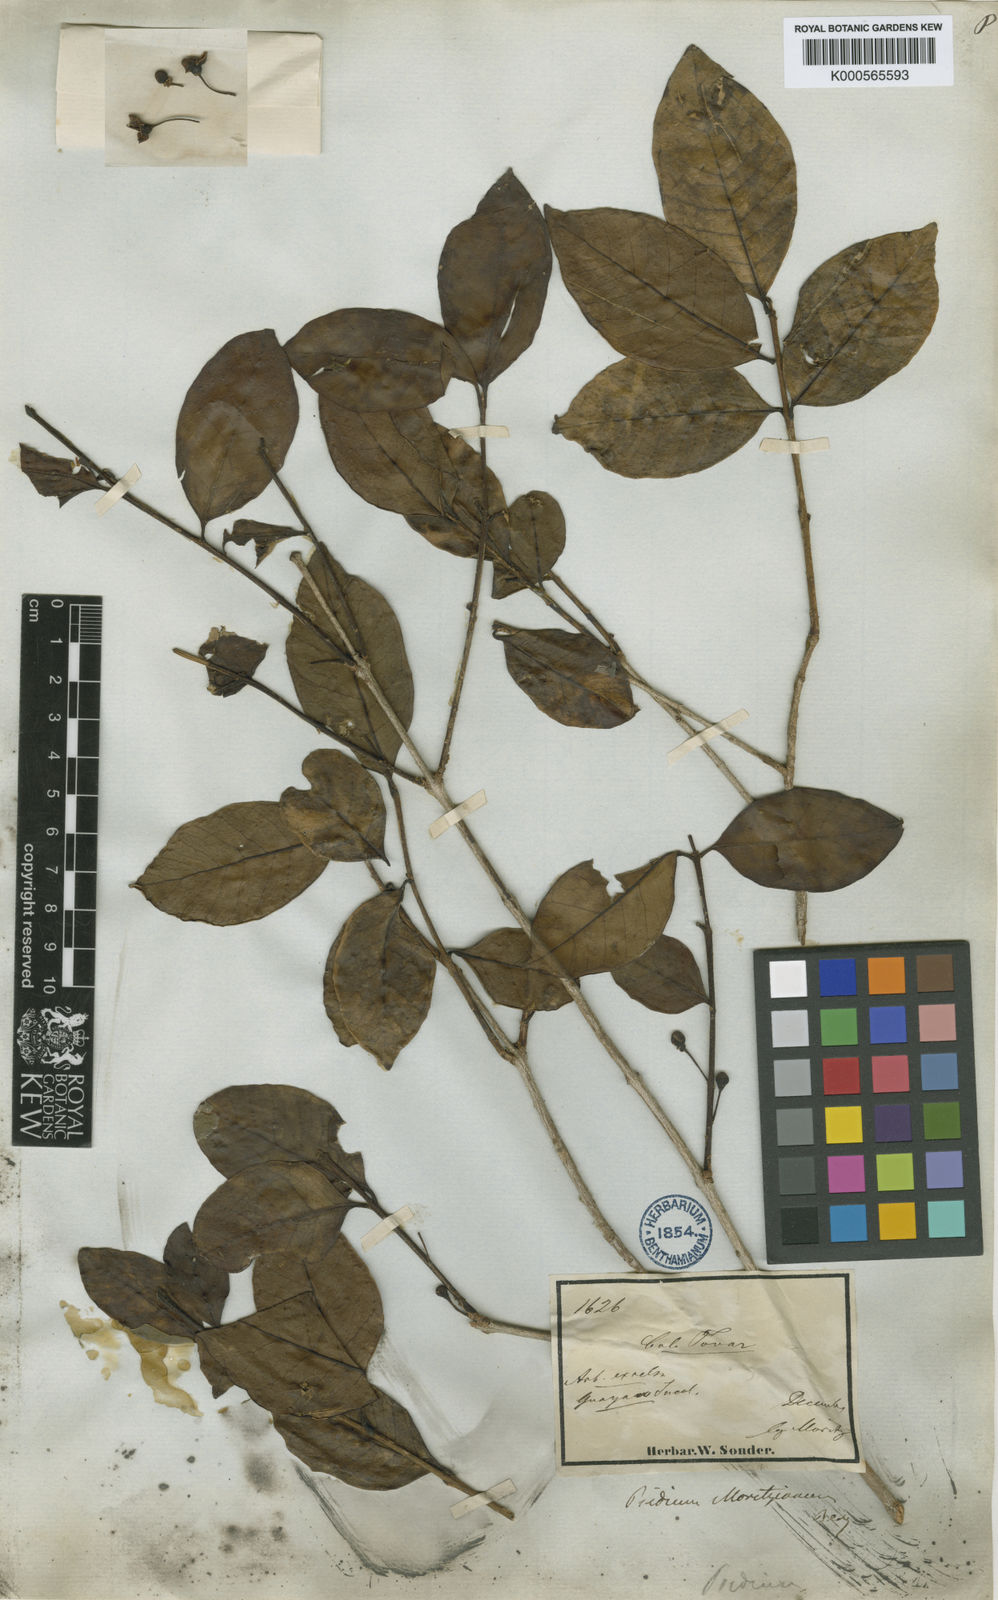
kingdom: Plantae
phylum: Tracheophyta
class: Magnoliopsida
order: Myrtales
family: Myrtaceae
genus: Psidium
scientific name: Psidium brownianum
